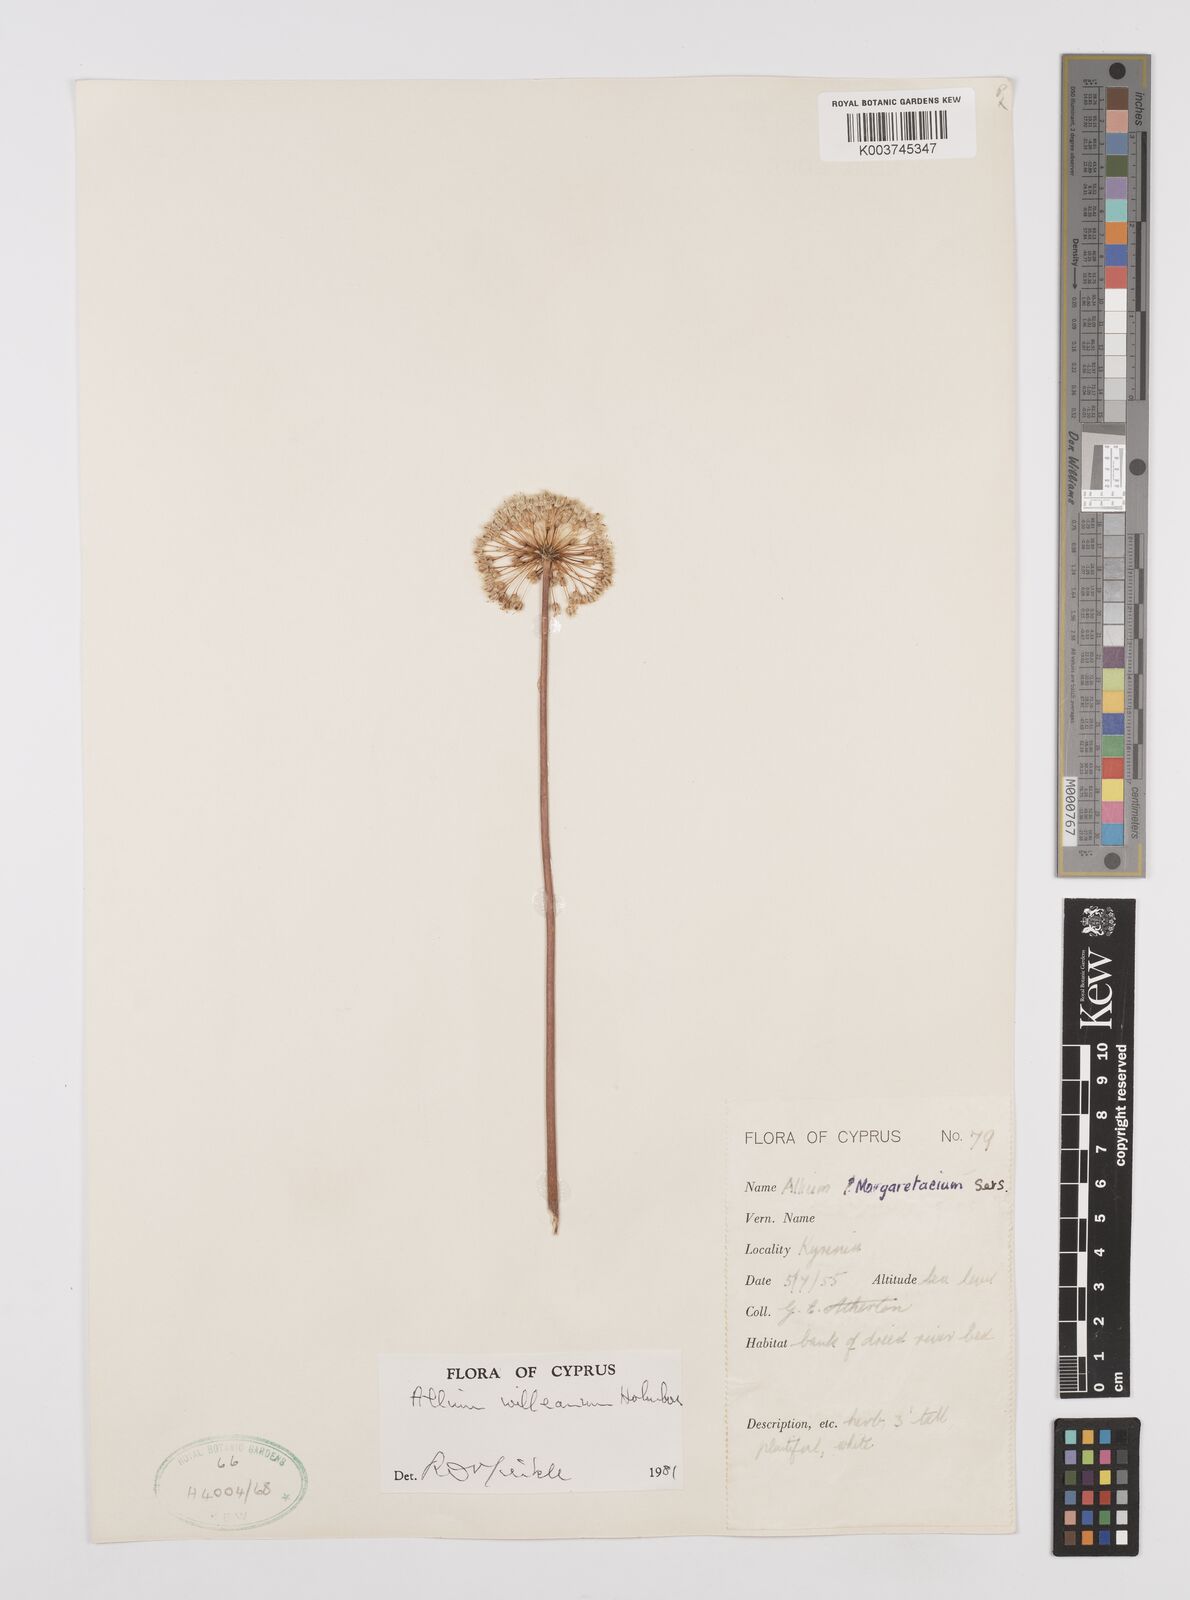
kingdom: Plantae
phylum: Tracheophyta
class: Liliopsida
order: Asparagales
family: Amaryllidaceae
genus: Allium
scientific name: Allium willeanum
